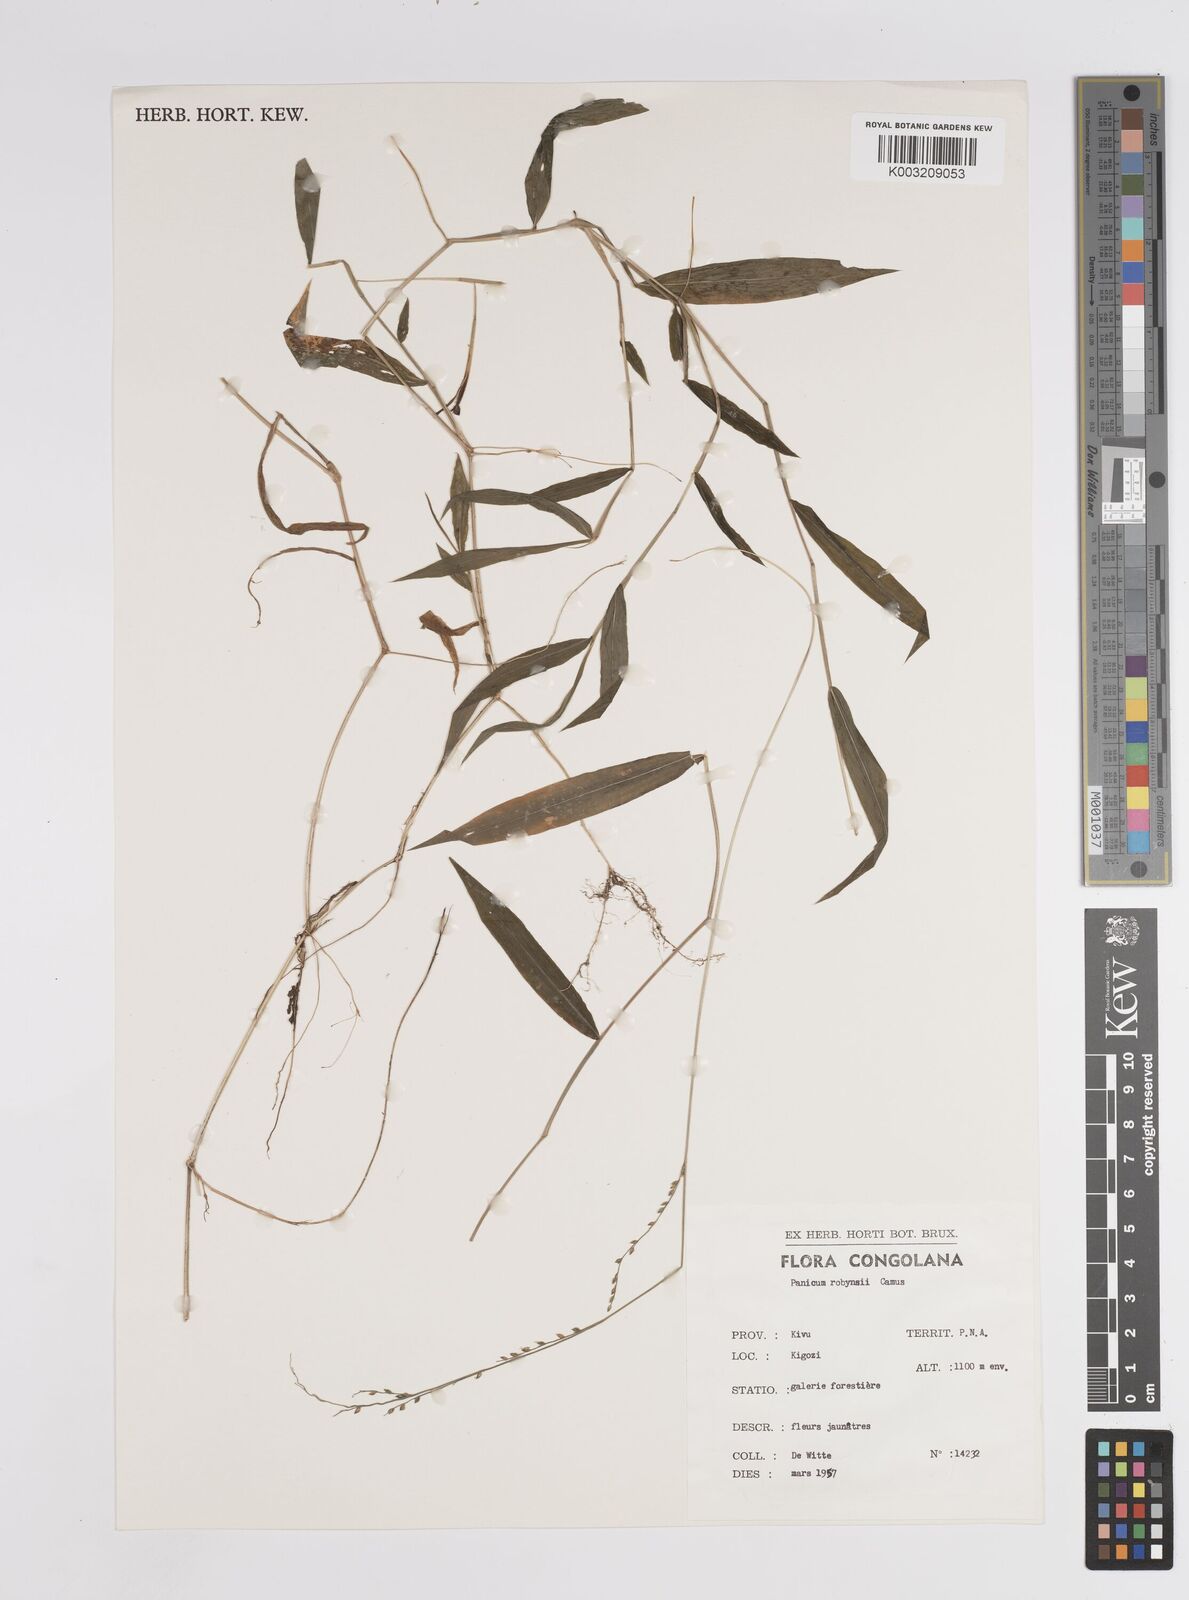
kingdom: Plantae
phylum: Tracheophyta
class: Liliopsida
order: Poales
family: Poaceae
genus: Panicum
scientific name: Panicum robynsii
